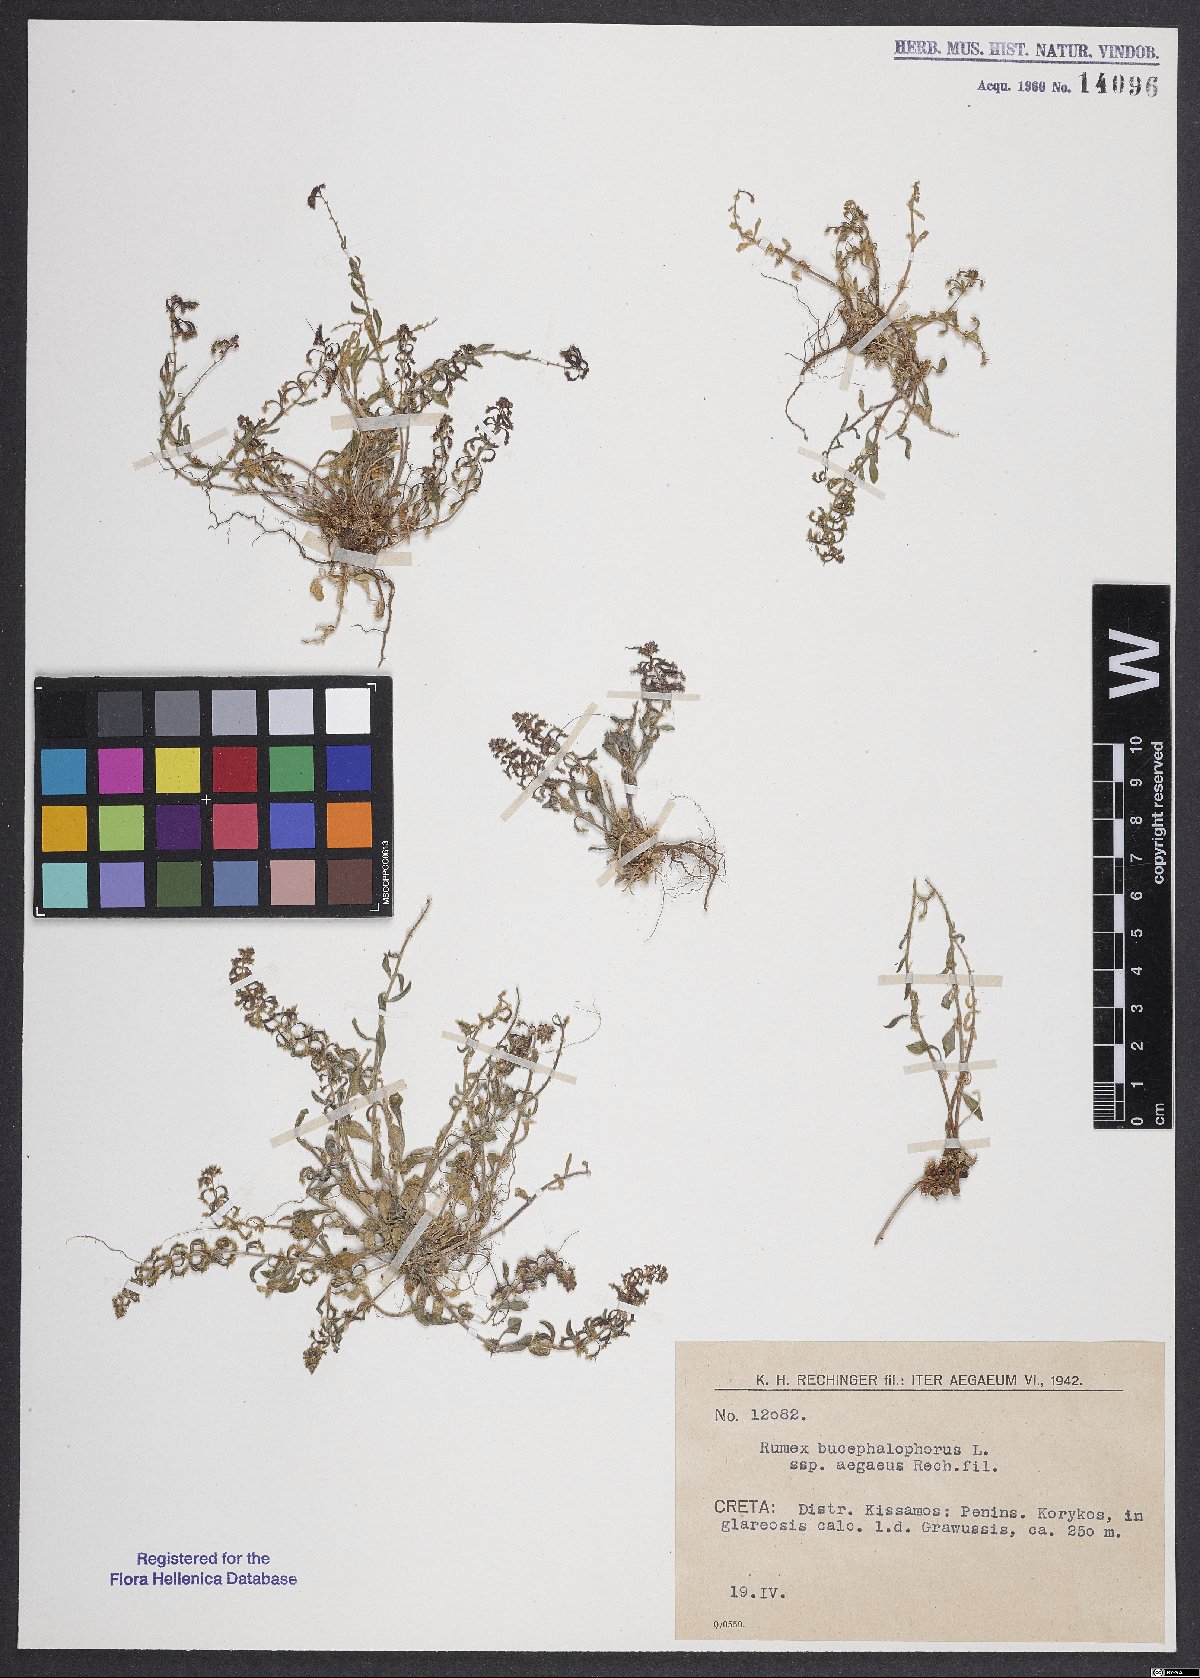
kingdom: Plantae
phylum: Tracheophyta
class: Magnoliopsida
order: Caryophyllales
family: Polygonaceae
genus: Rumex
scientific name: Rumex bucephalophorus
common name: Red dock
